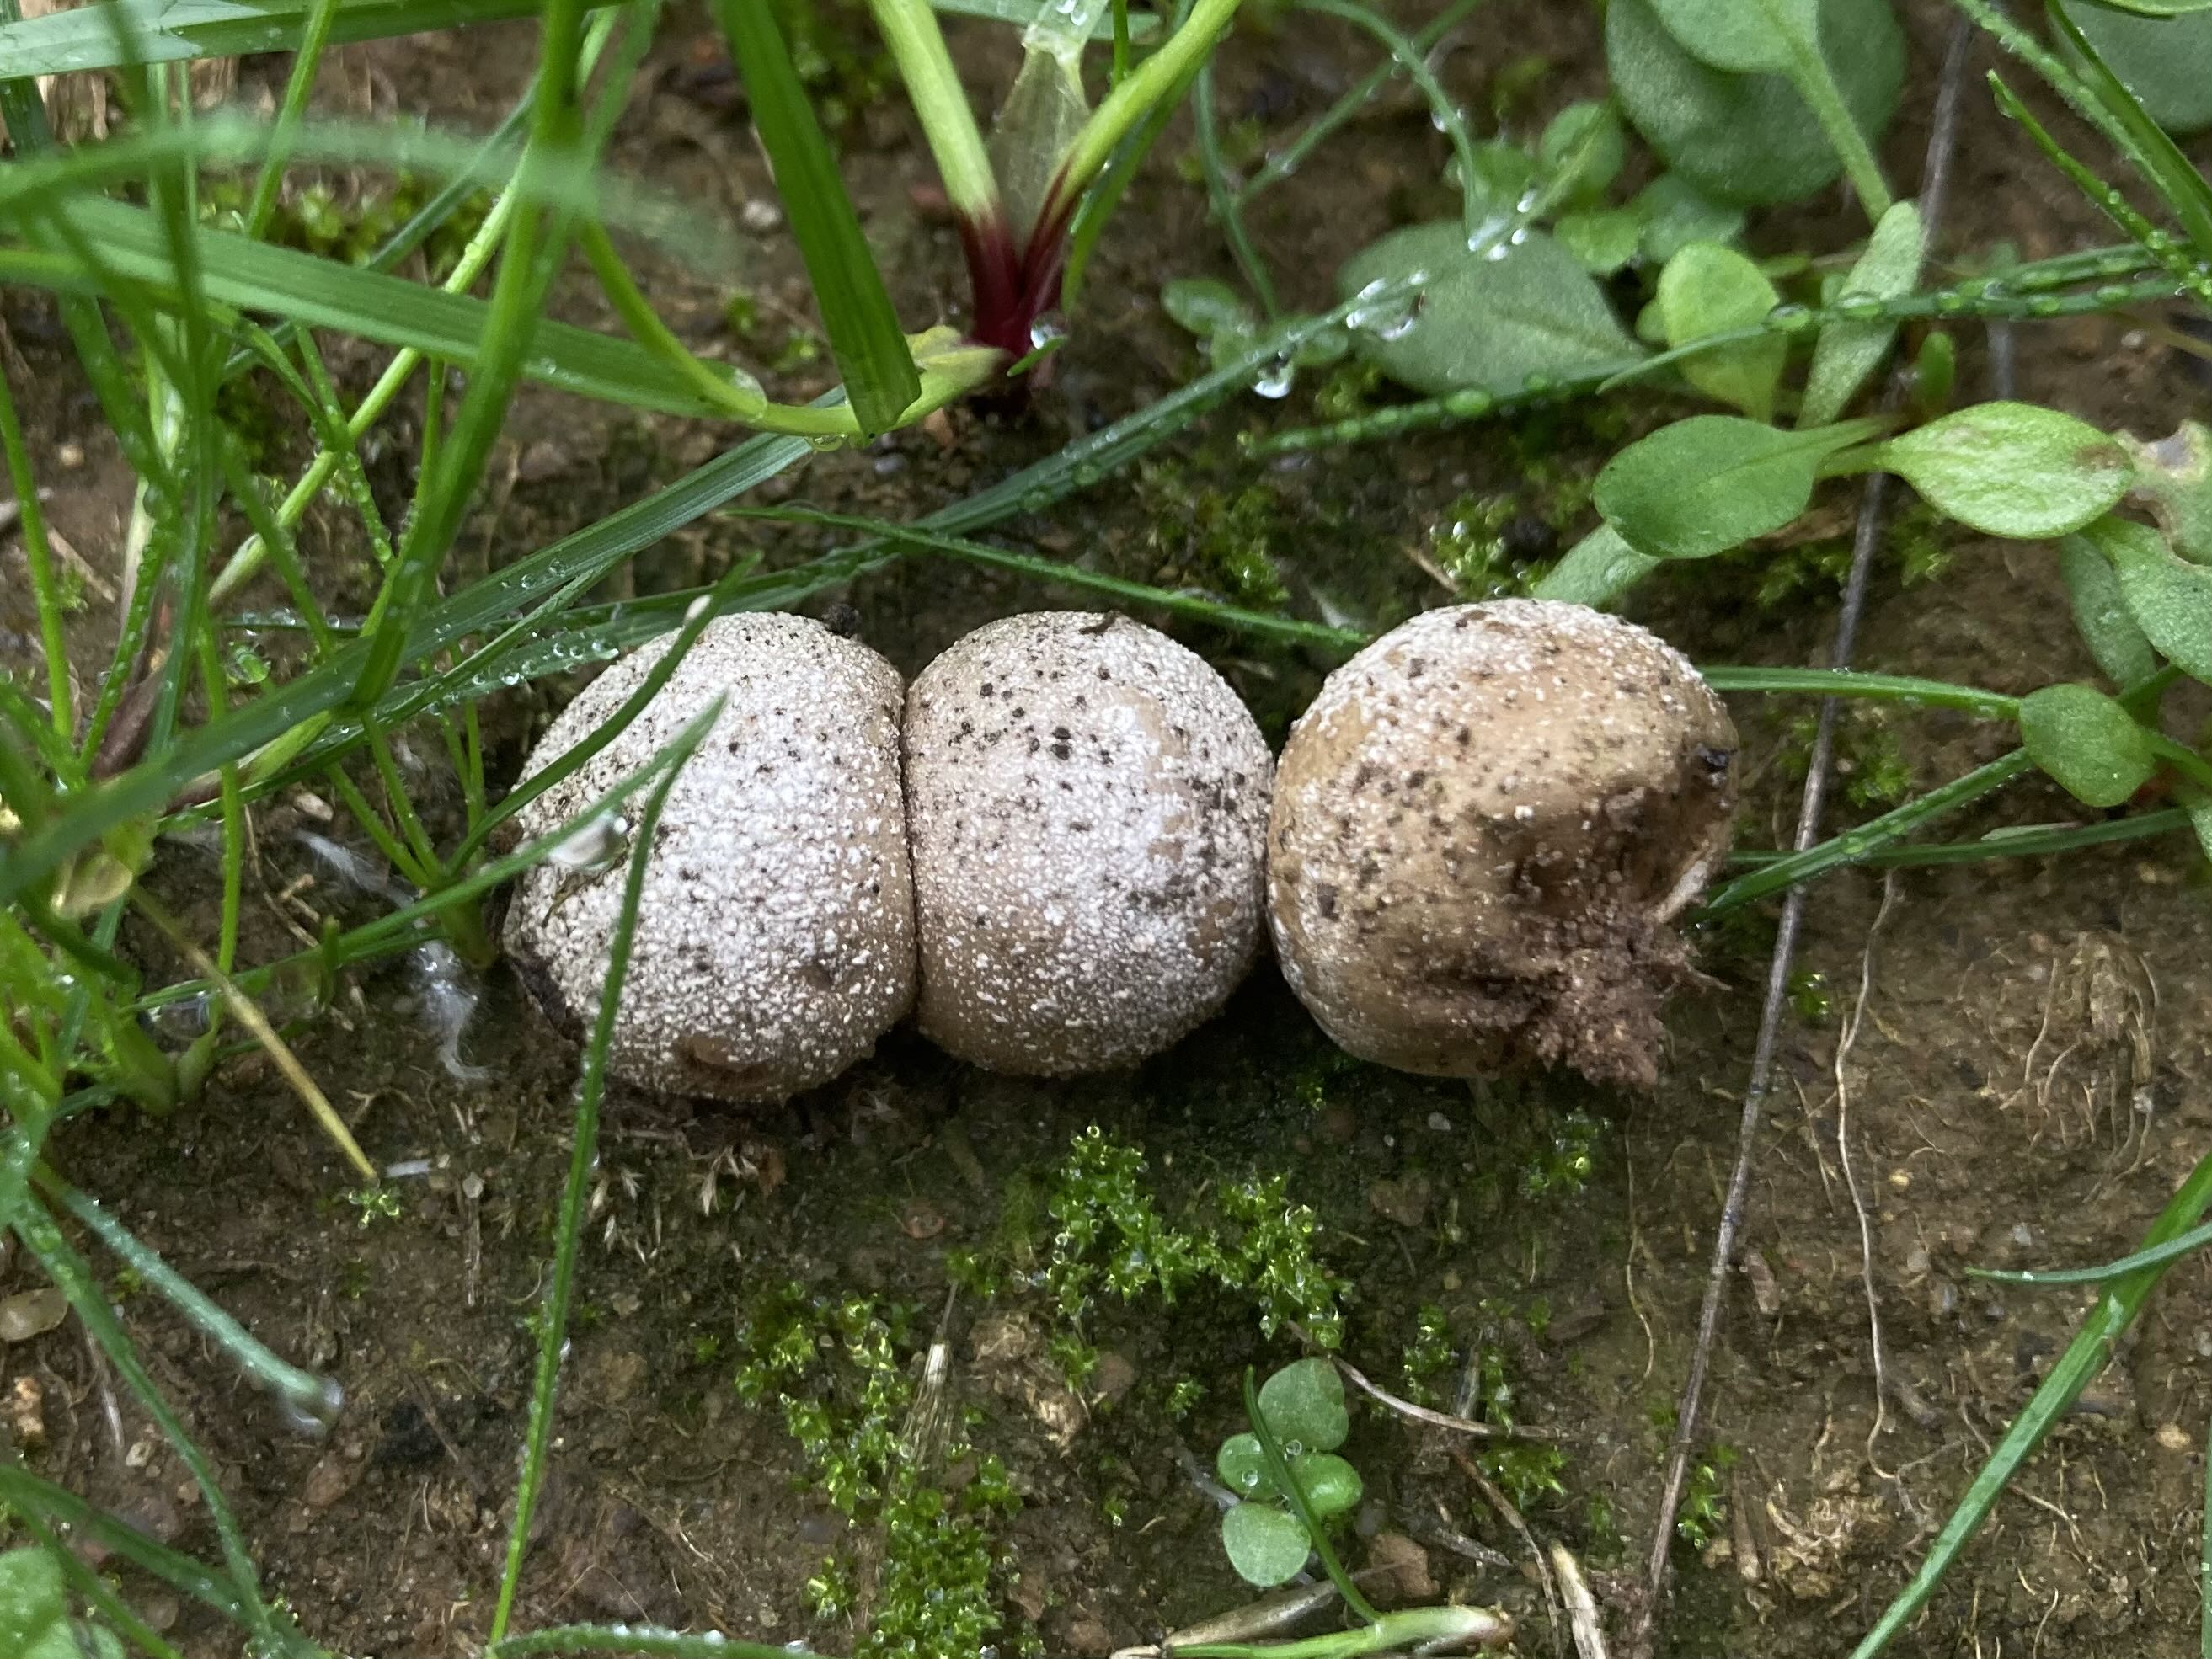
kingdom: Fungi
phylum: Basidiomycota
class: Agaricomycetes
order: Agaricales
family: Lycoperdaceae
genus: Bovista
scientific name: Bovista furfuracea
